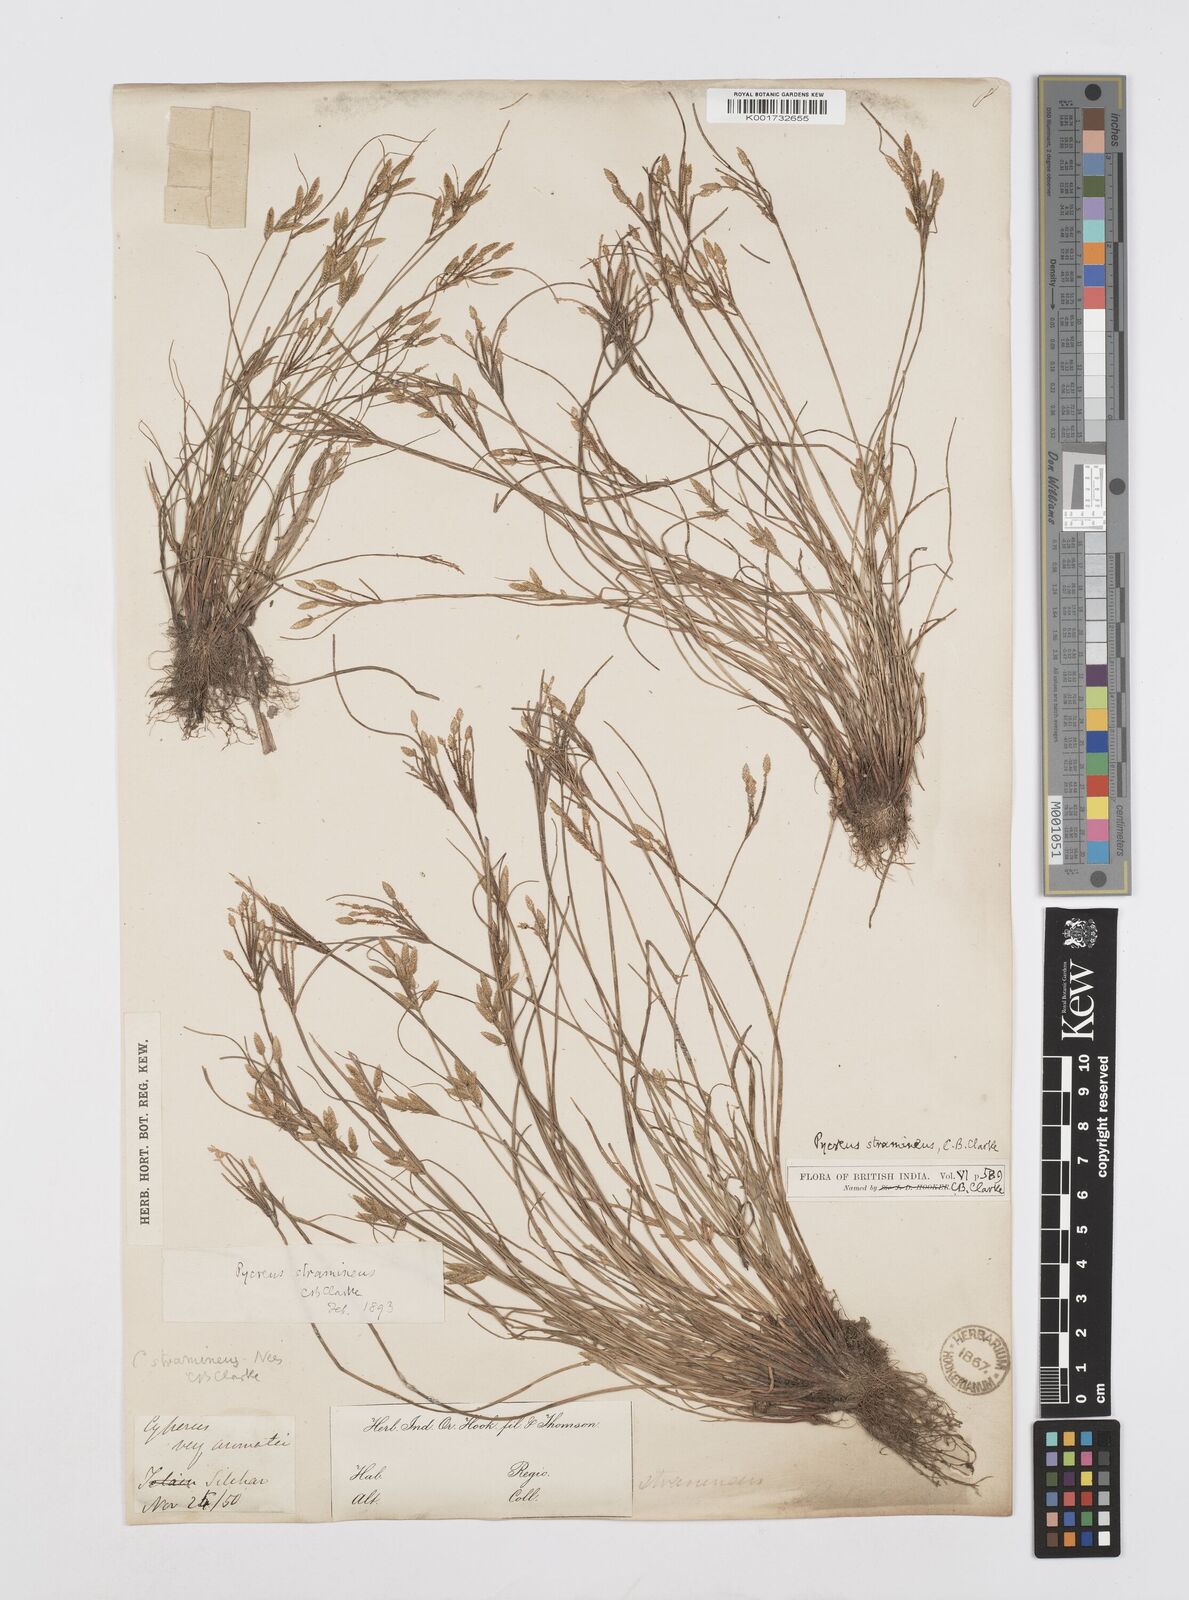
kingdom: Plantae
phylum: Tracheophyta
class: Liliopsida
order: Poales
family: Cyperaceae
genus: Cyperus
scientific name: Cyperus substramineus
